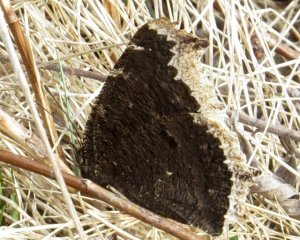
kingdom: Animalia
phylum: Arthropoda
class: Insecta
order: Lepidoptera
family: Nymphalidae
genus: Nymphalis
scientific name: Nymphalis antiopa
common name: Mourning Cloak
